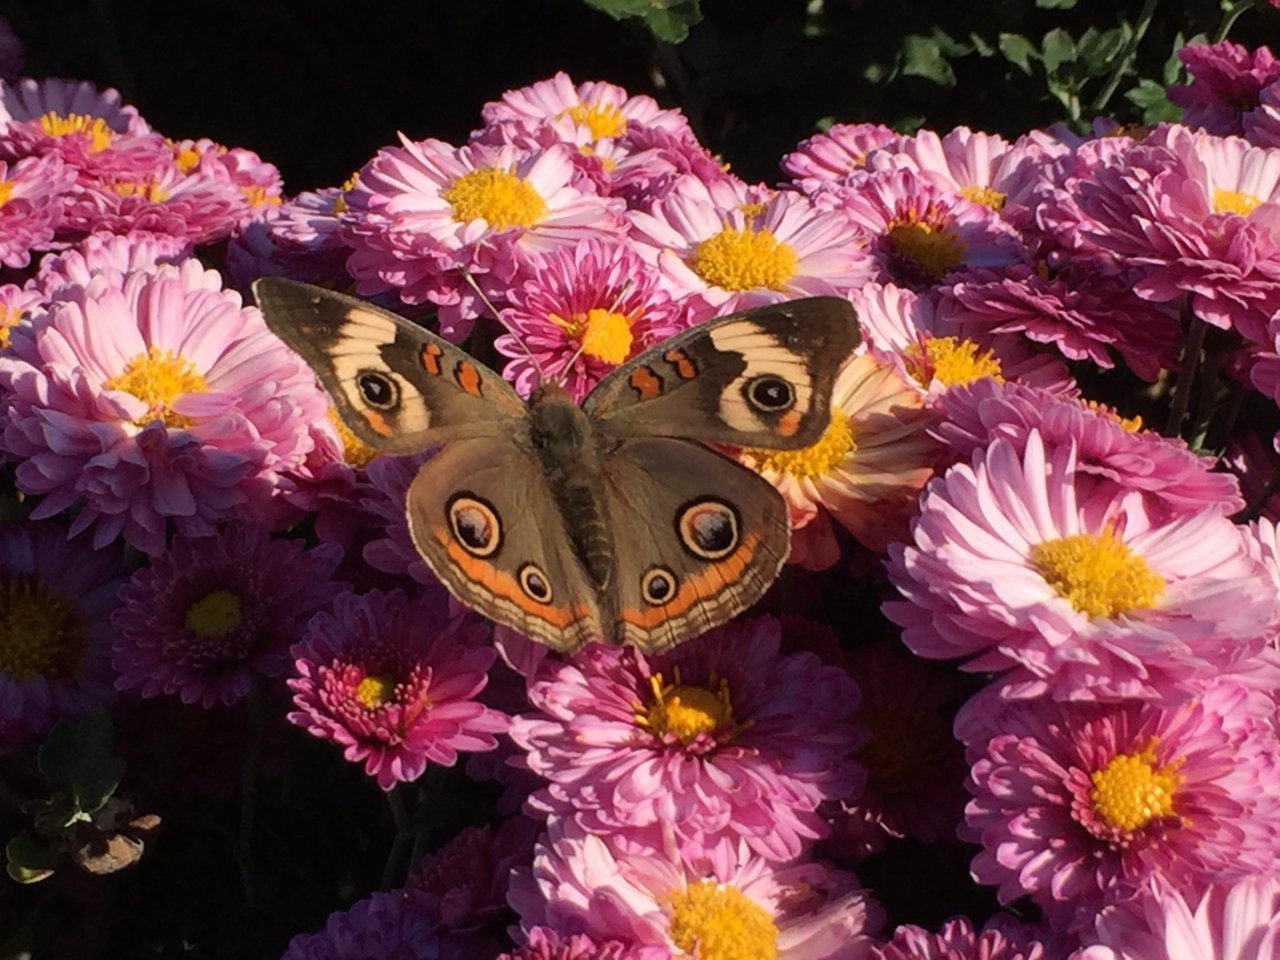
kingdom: Animalia
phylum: Arthropoda
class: Insecta
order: Lepidoptera
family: Nymphalidae
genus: Junonia
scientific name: Junonia coenia
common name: Common Buckeye
